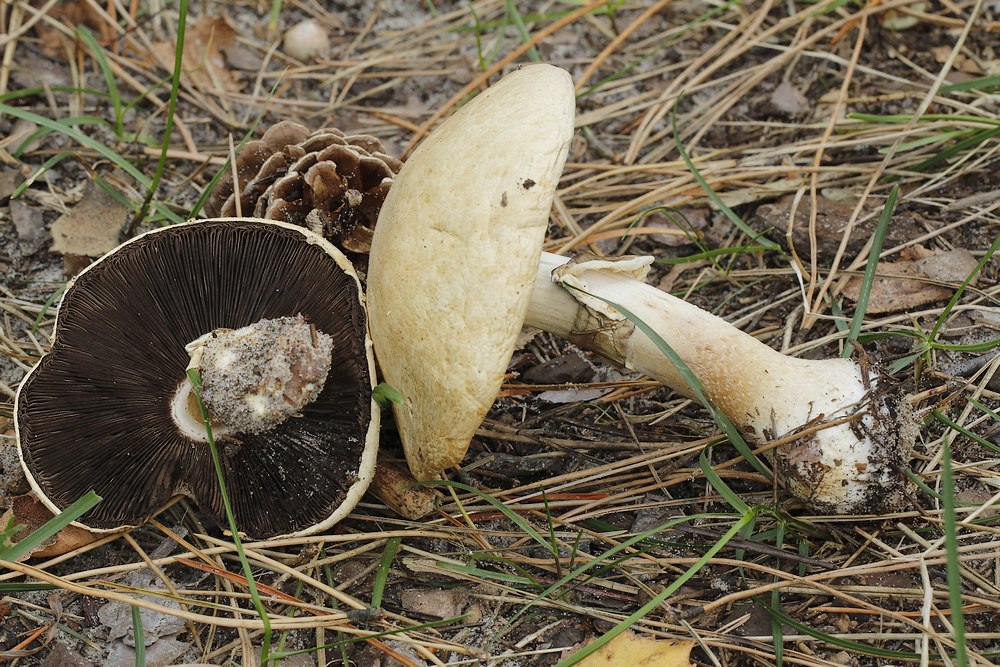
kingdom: Fungi
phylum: Basidiomycota
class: Agaricomycetes
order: Agaricales
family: Agaricaceae
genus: Agaricus
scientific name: Agaricus sylvicola
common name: skiveknoldet champignon
